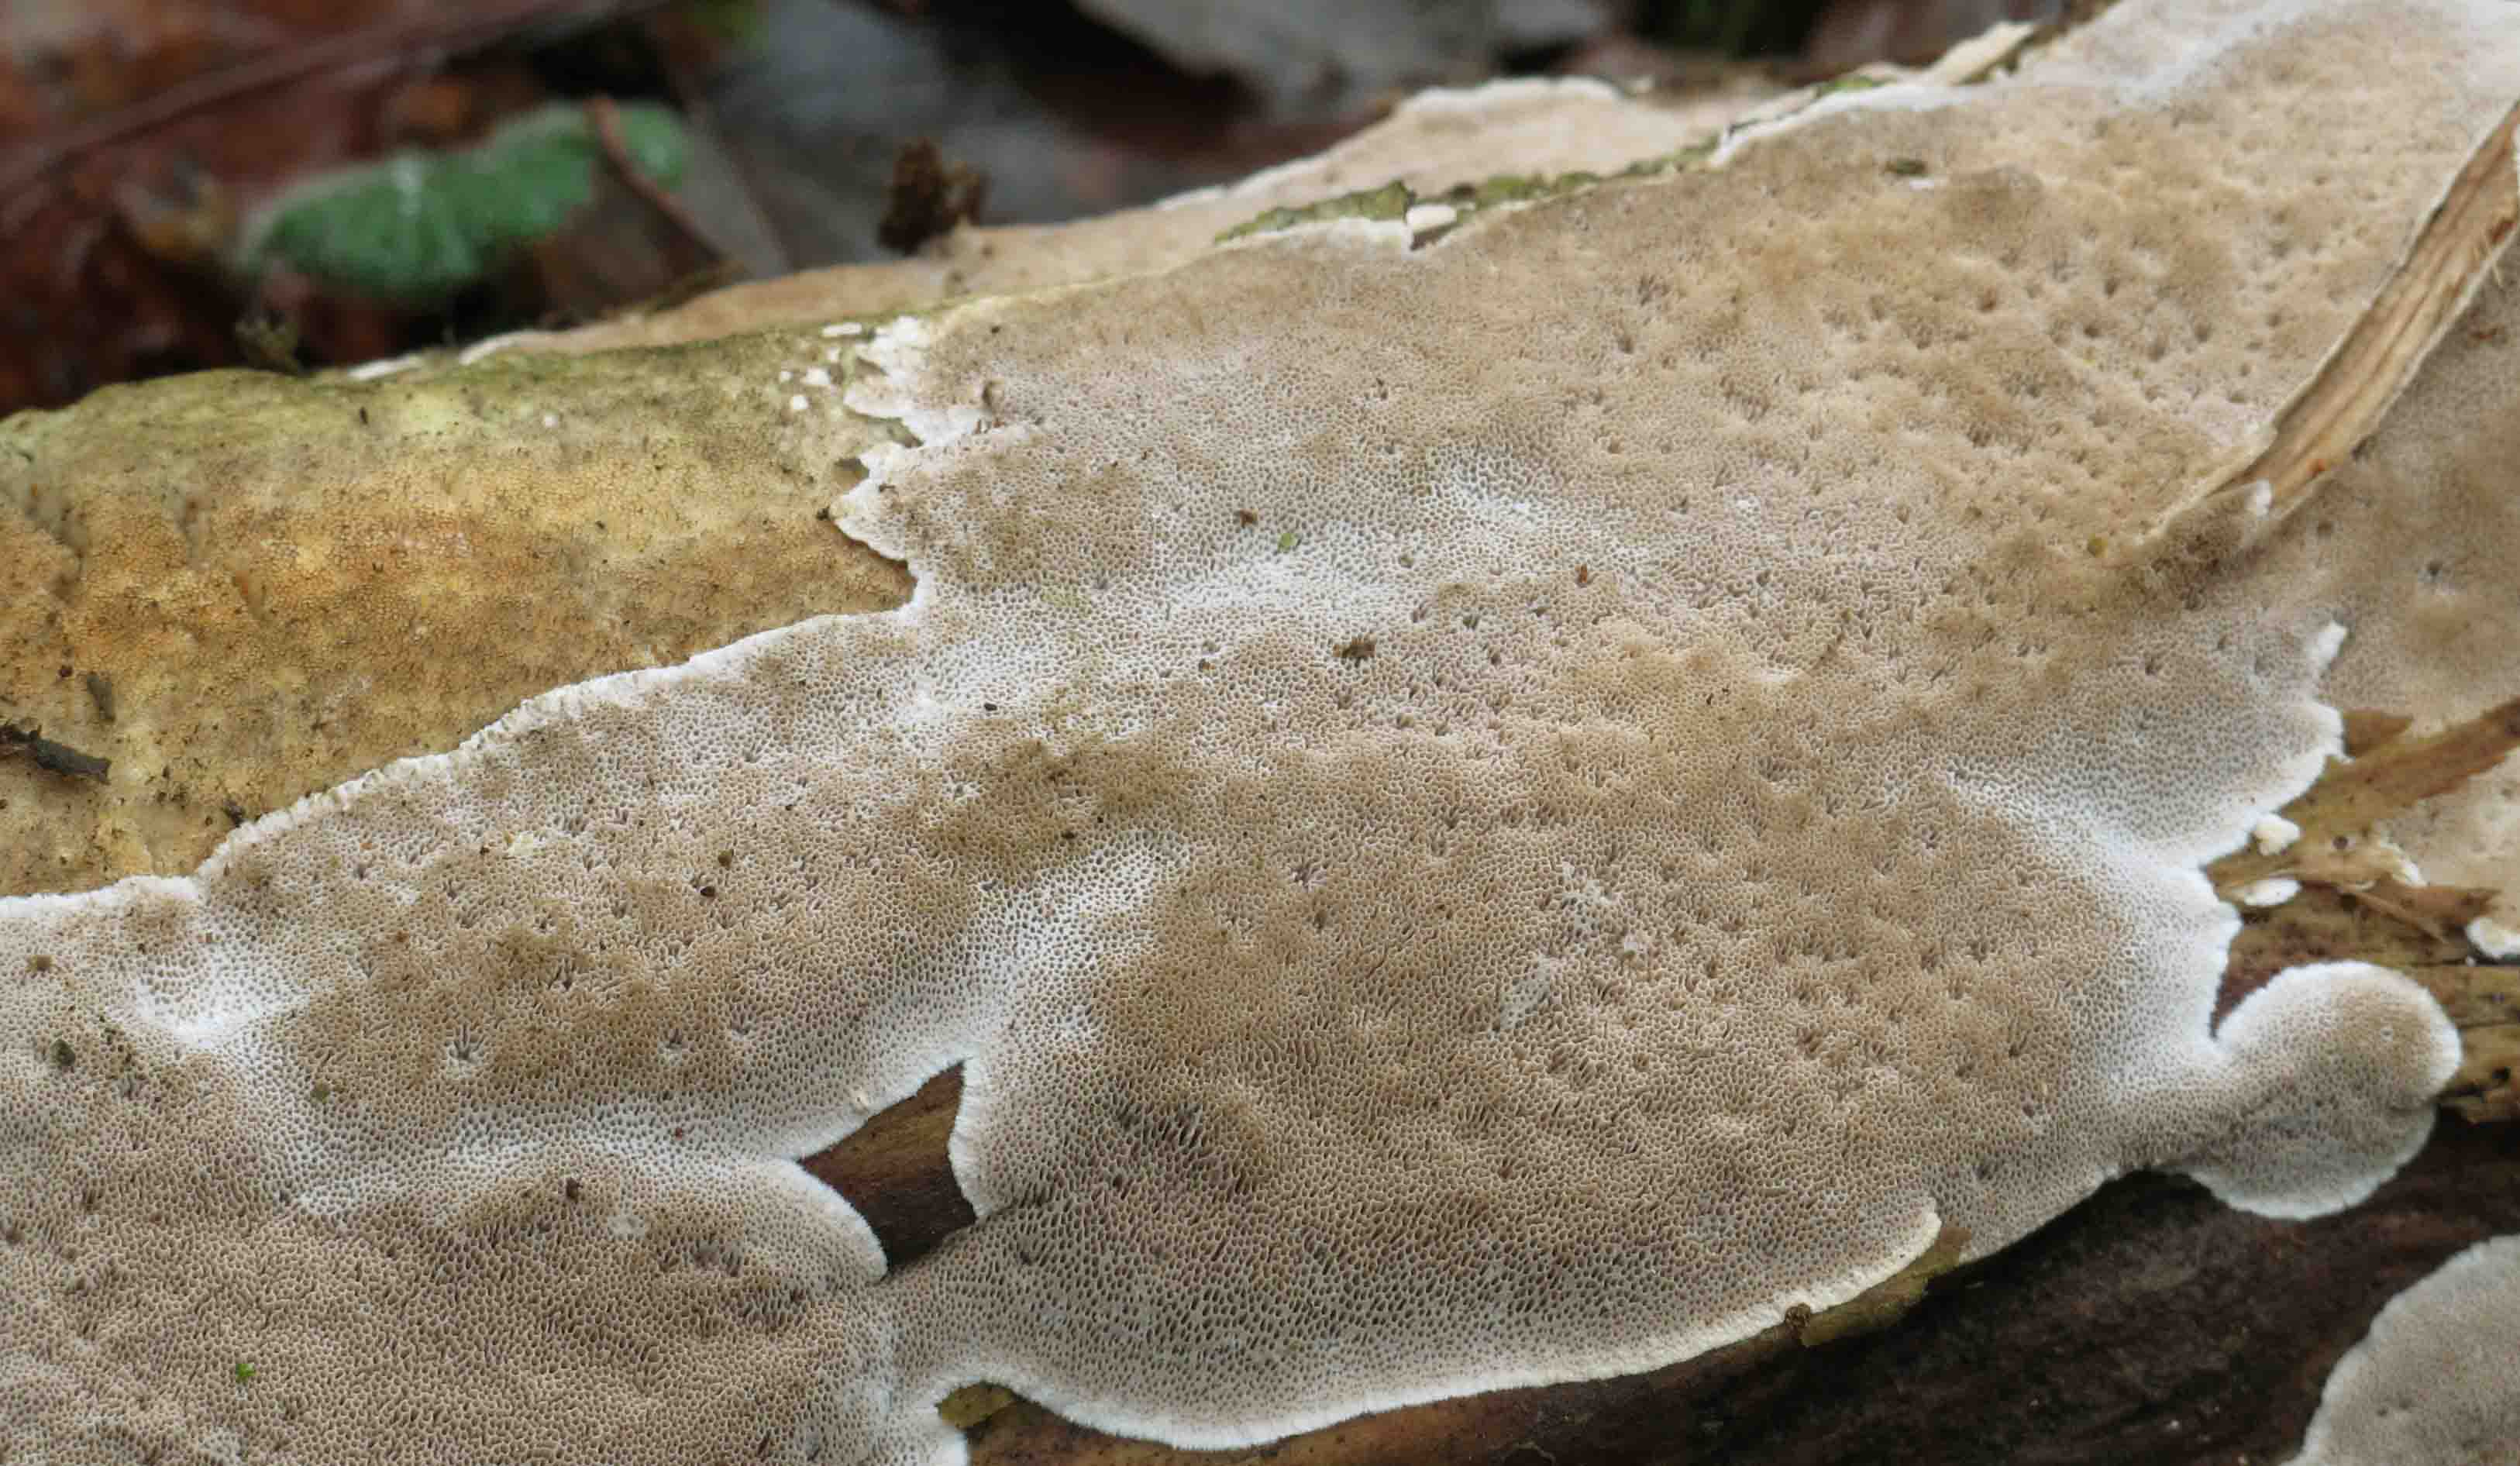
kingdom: Fungi
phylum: Basidiomycota
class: Agaricomycetes
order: Polyporales
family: Gelatoporiaceae
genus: Cinereomyces
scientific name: Cinereomyces lindbladii
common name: almindelig gråporesvamp
